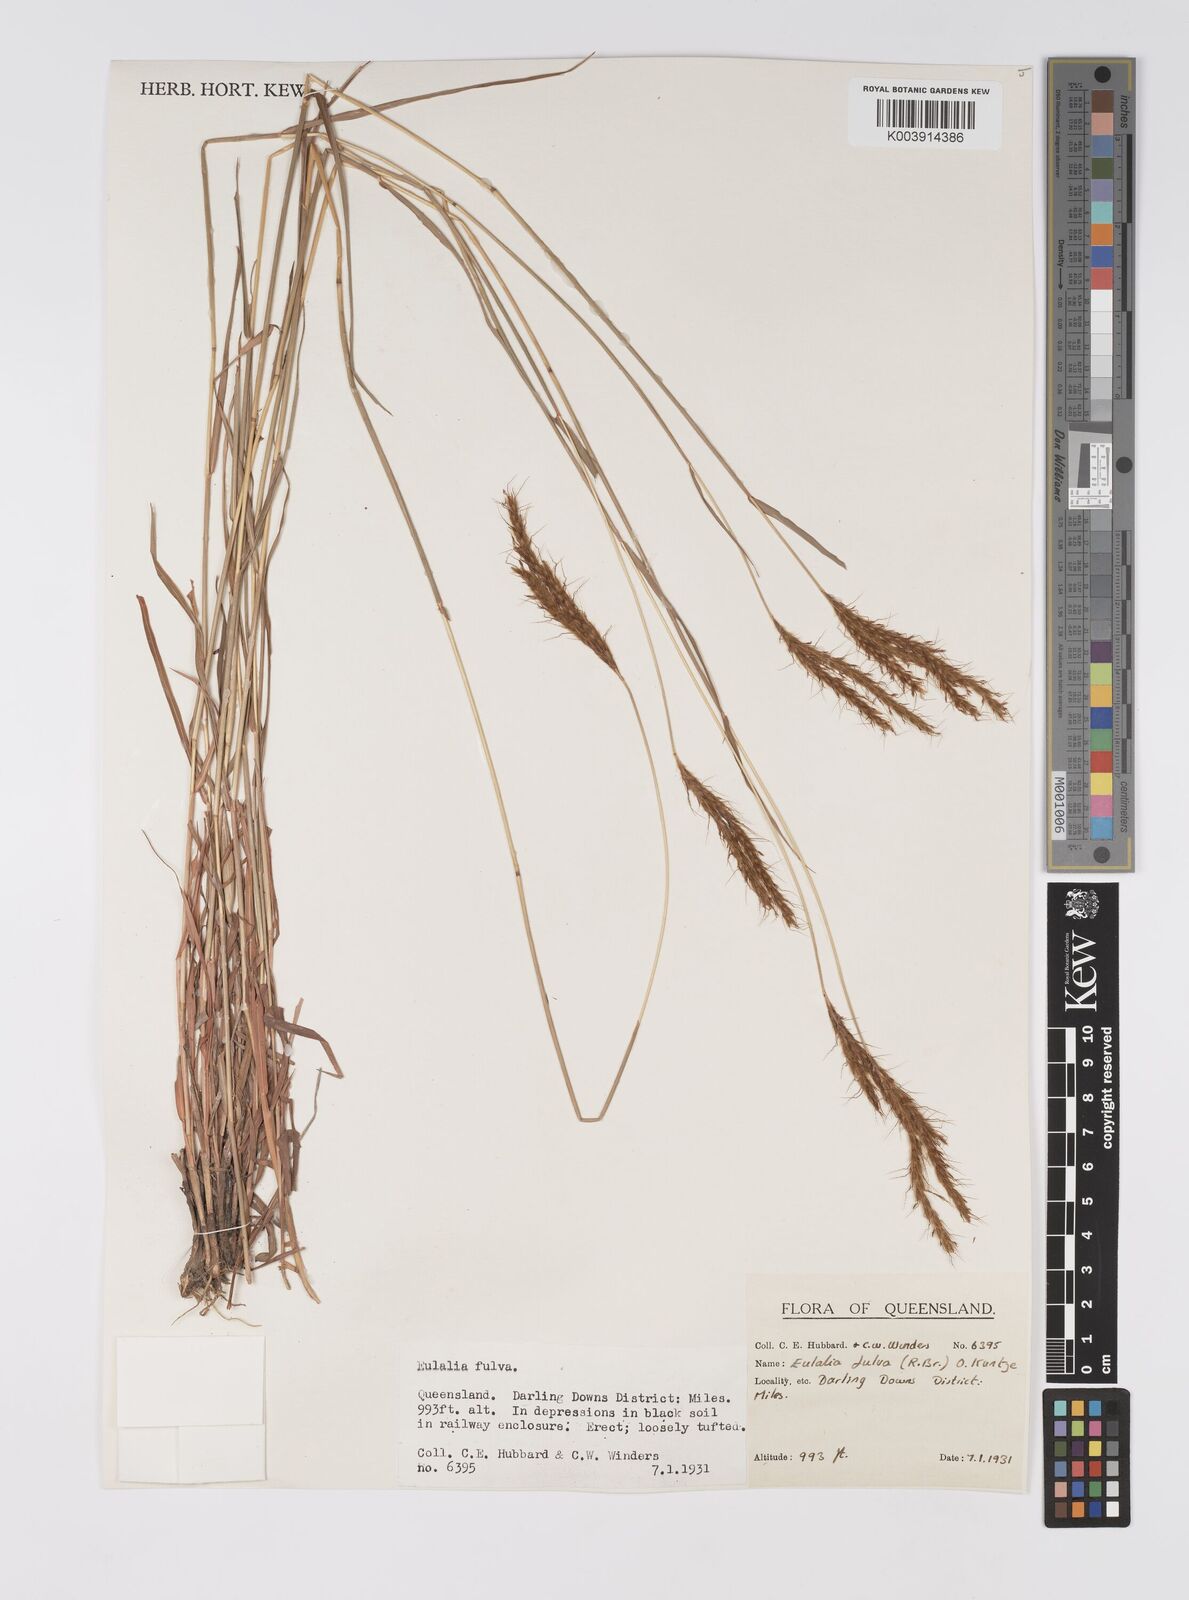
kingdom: Plantae
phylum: Tracheophyta
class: Liliopsida
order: Poales
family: Poaceae
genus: Eulalia
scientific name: Eulalia aurea
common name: Silky browntop
